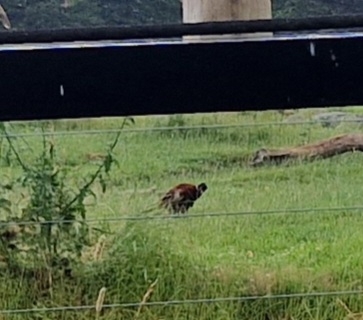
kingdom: Animalia
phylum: Chordata
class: Aves
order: Galliformes
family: Phasianidae
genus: Phasianus
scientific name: Phasianus colchicus
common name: Fasan
